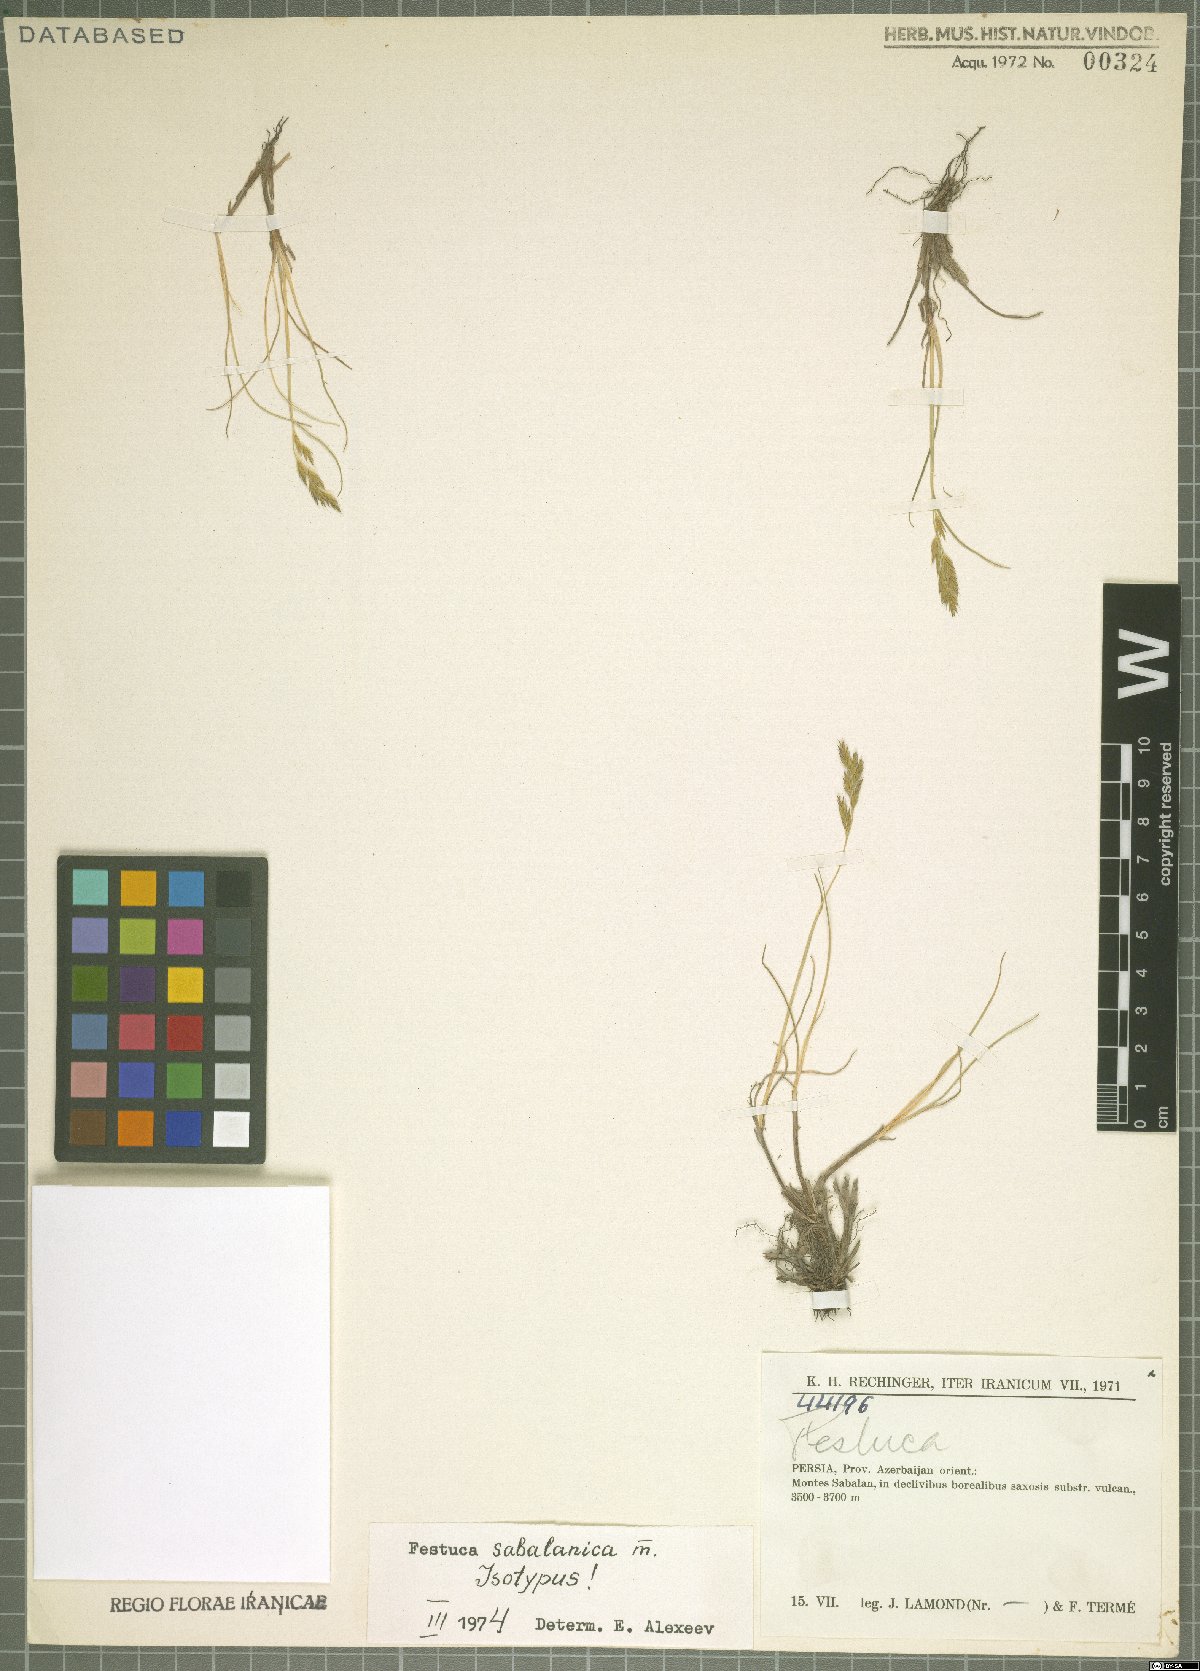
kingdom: Plantae
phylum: Tracheophyta
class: Liliopsida
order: Poales
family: Poaceae
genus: Festuca
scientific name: Festuca sabalanica
